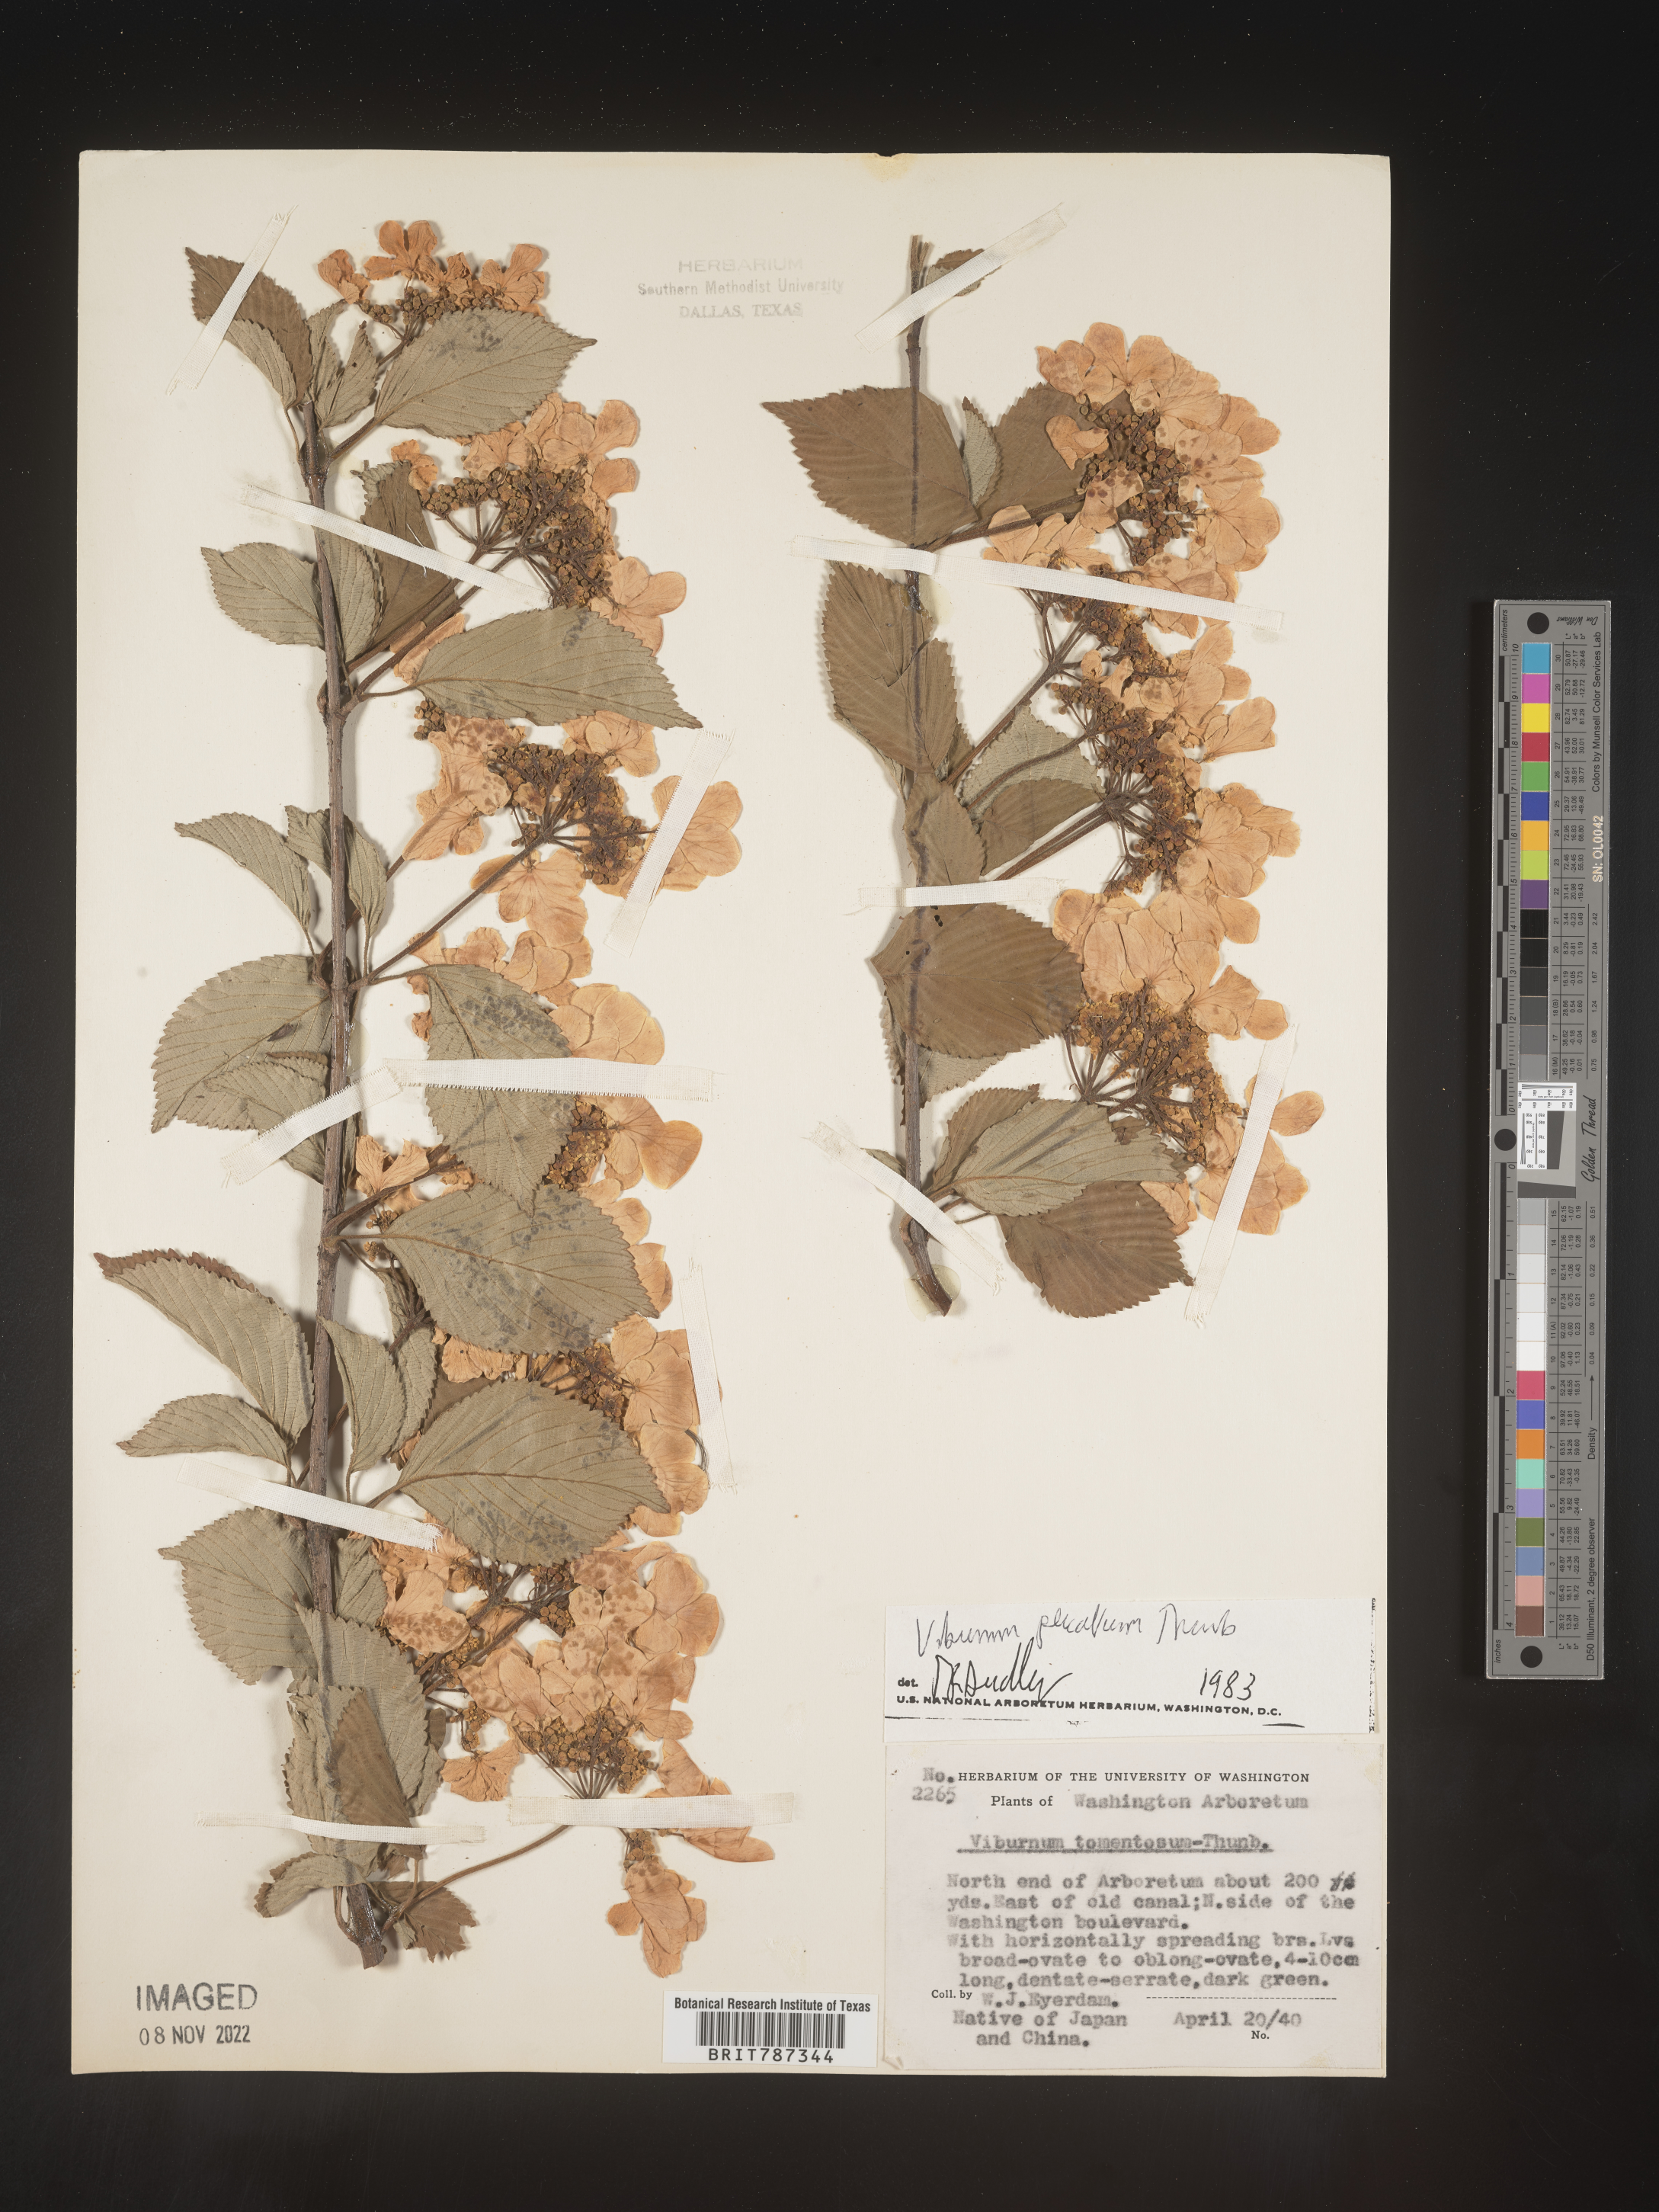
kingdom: Plantae
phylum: Tracheophyta
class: Magnoliopsida
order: Dipsacales
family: Viburnaceae
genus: Viburnum
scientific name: Viburnum
